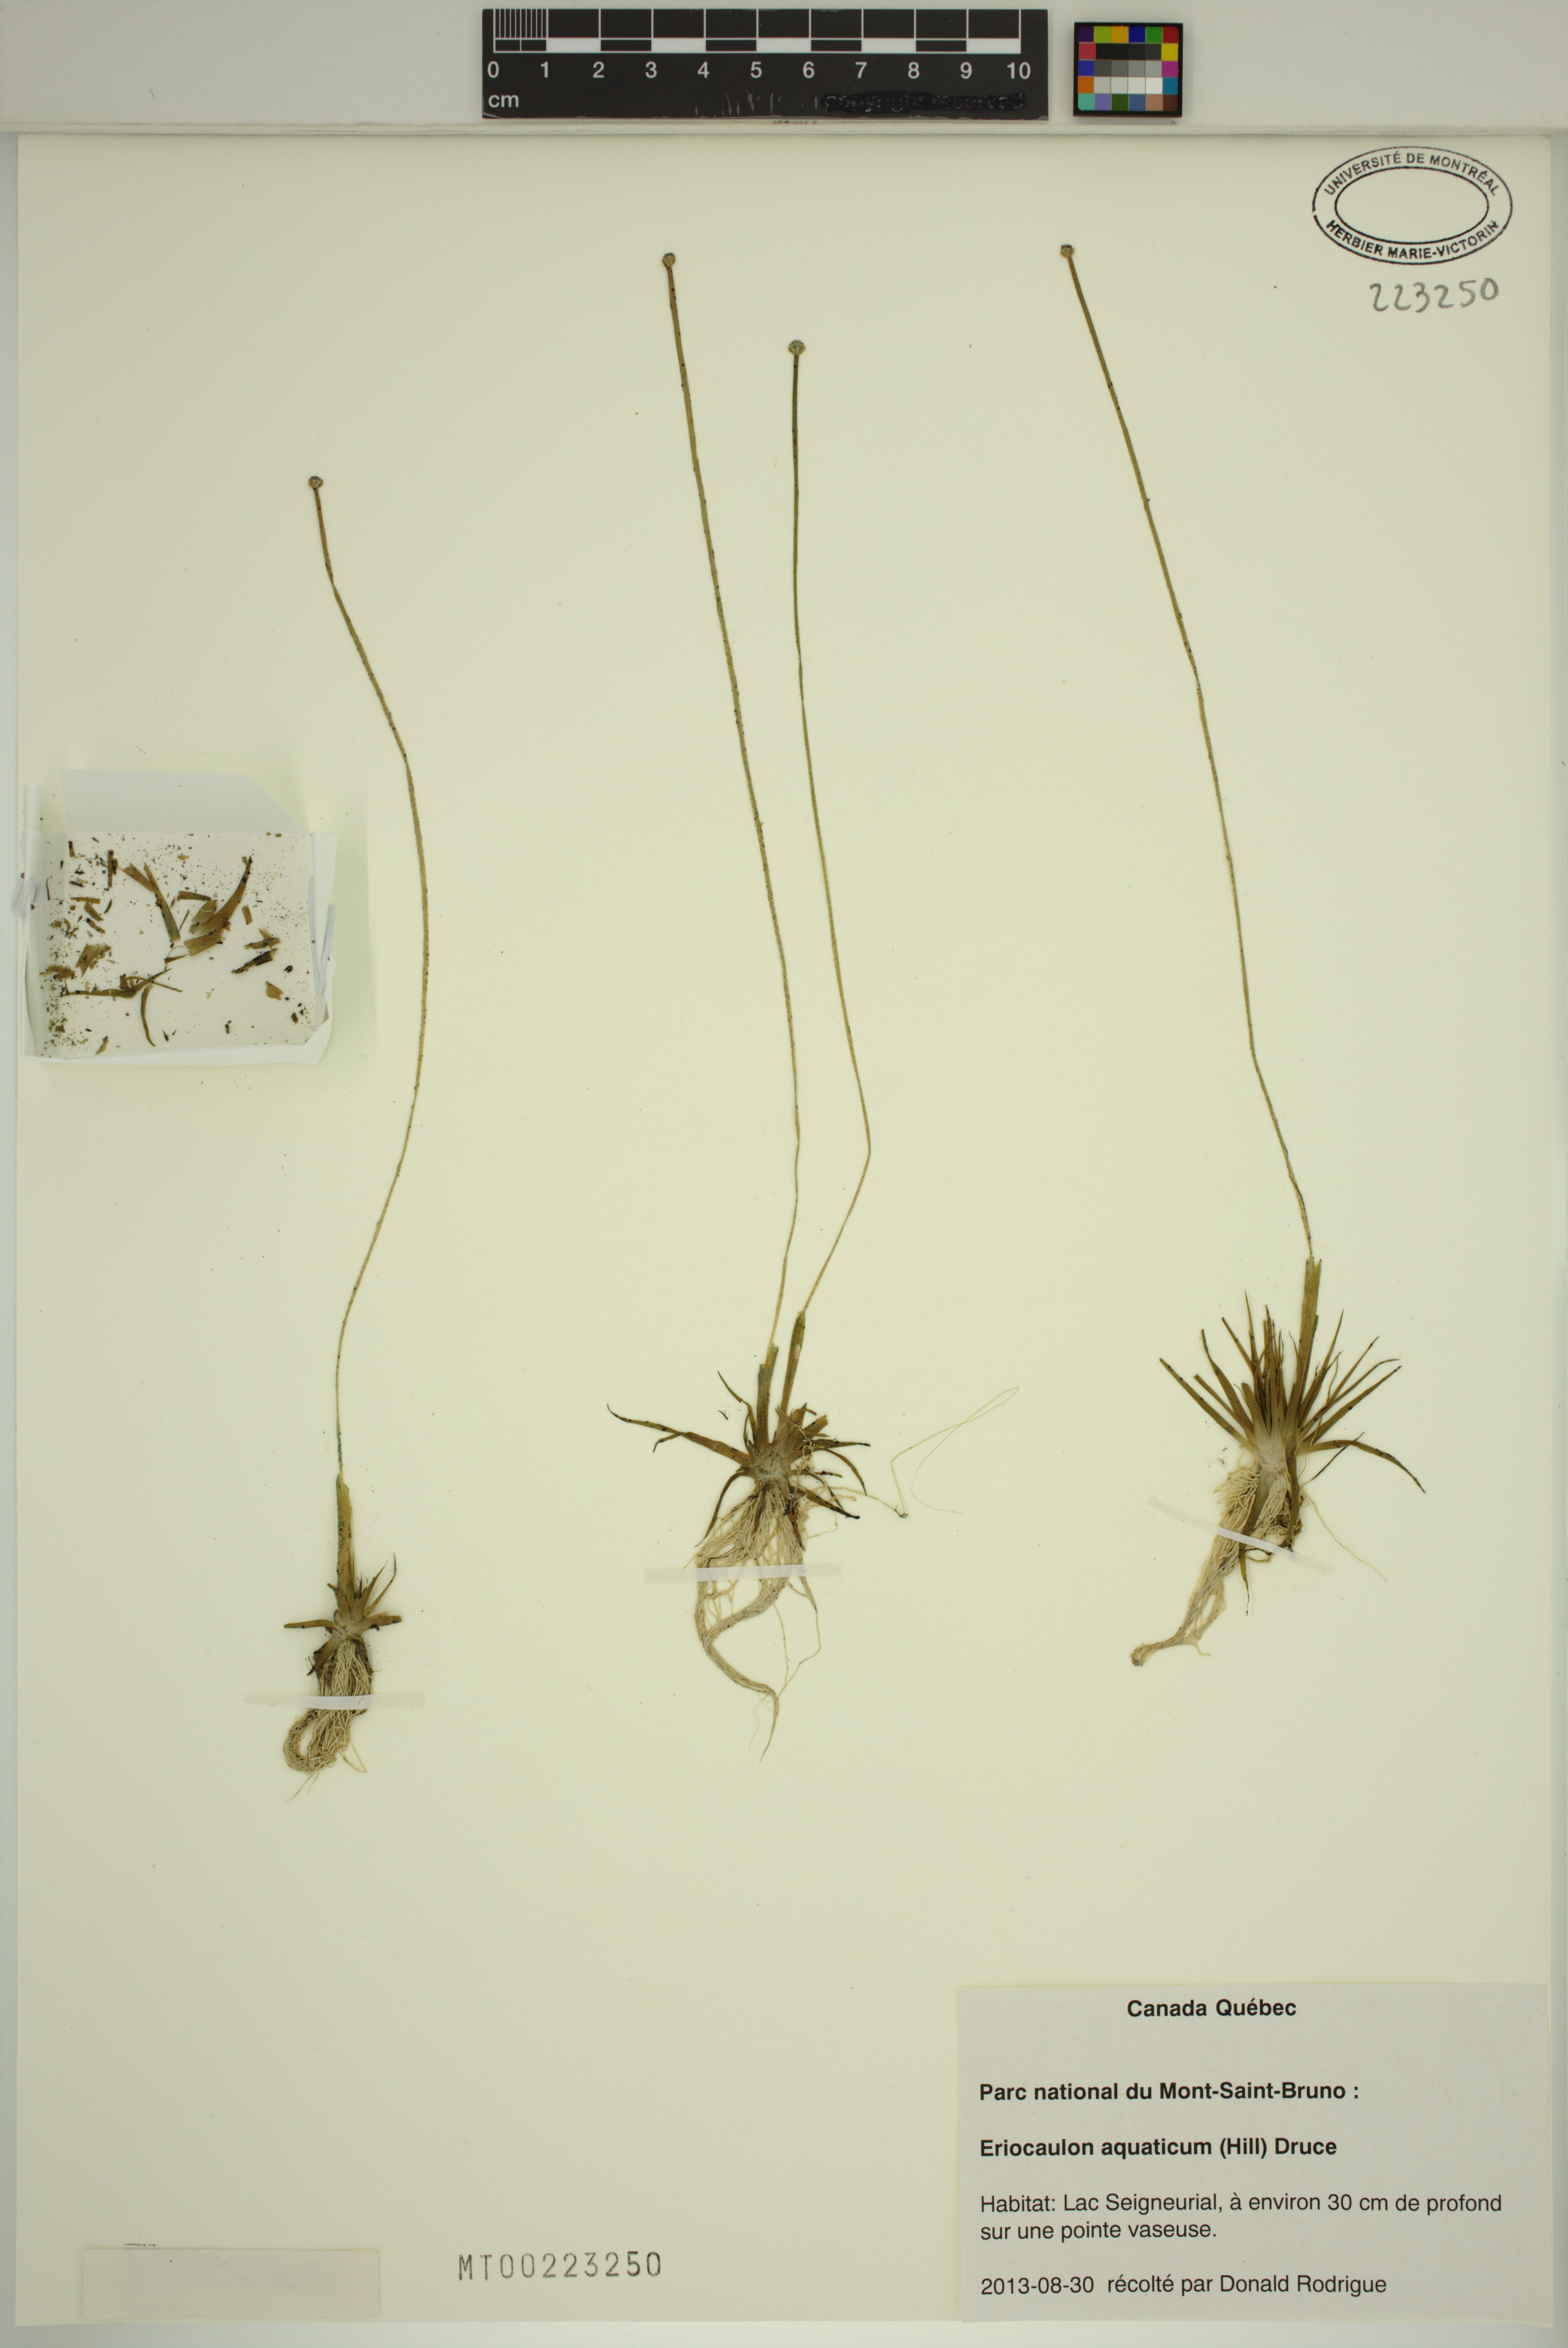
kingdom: Plantae
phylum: Tracheophyta
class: Liliopsida
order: Poales
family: Eriocaulaceae
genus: Eriocaulon
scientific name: Eriocaulon aquaticum
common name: Pipewort
